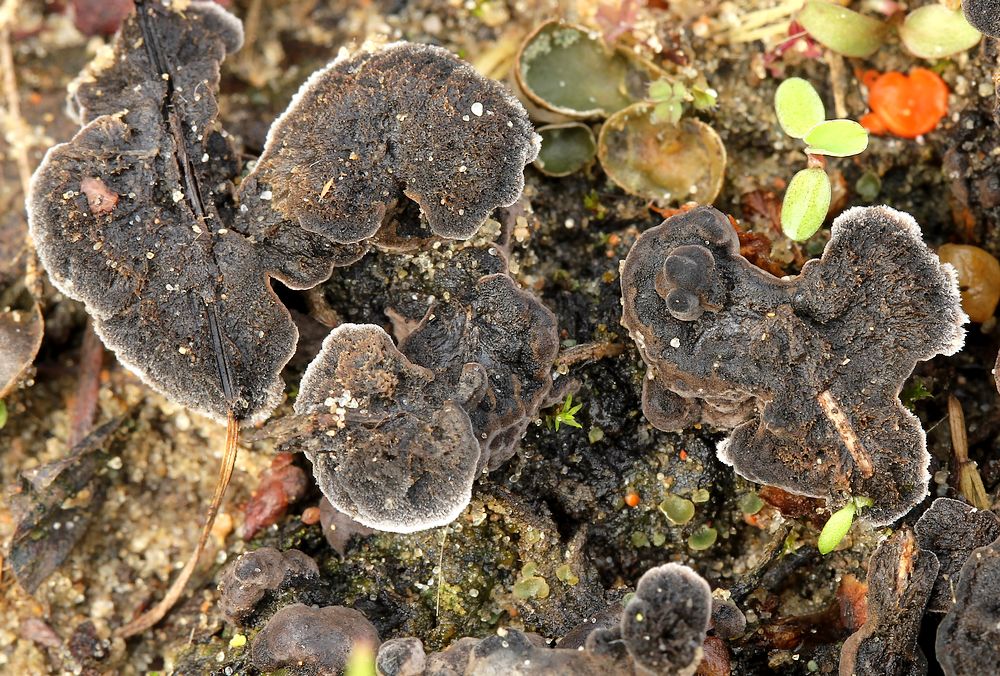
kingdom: Fungi
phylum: Basidiomycota
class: Agaricomycetes
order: Thelephorales
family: Thelephoraceae
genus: Thelephora
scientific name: Thelephora
